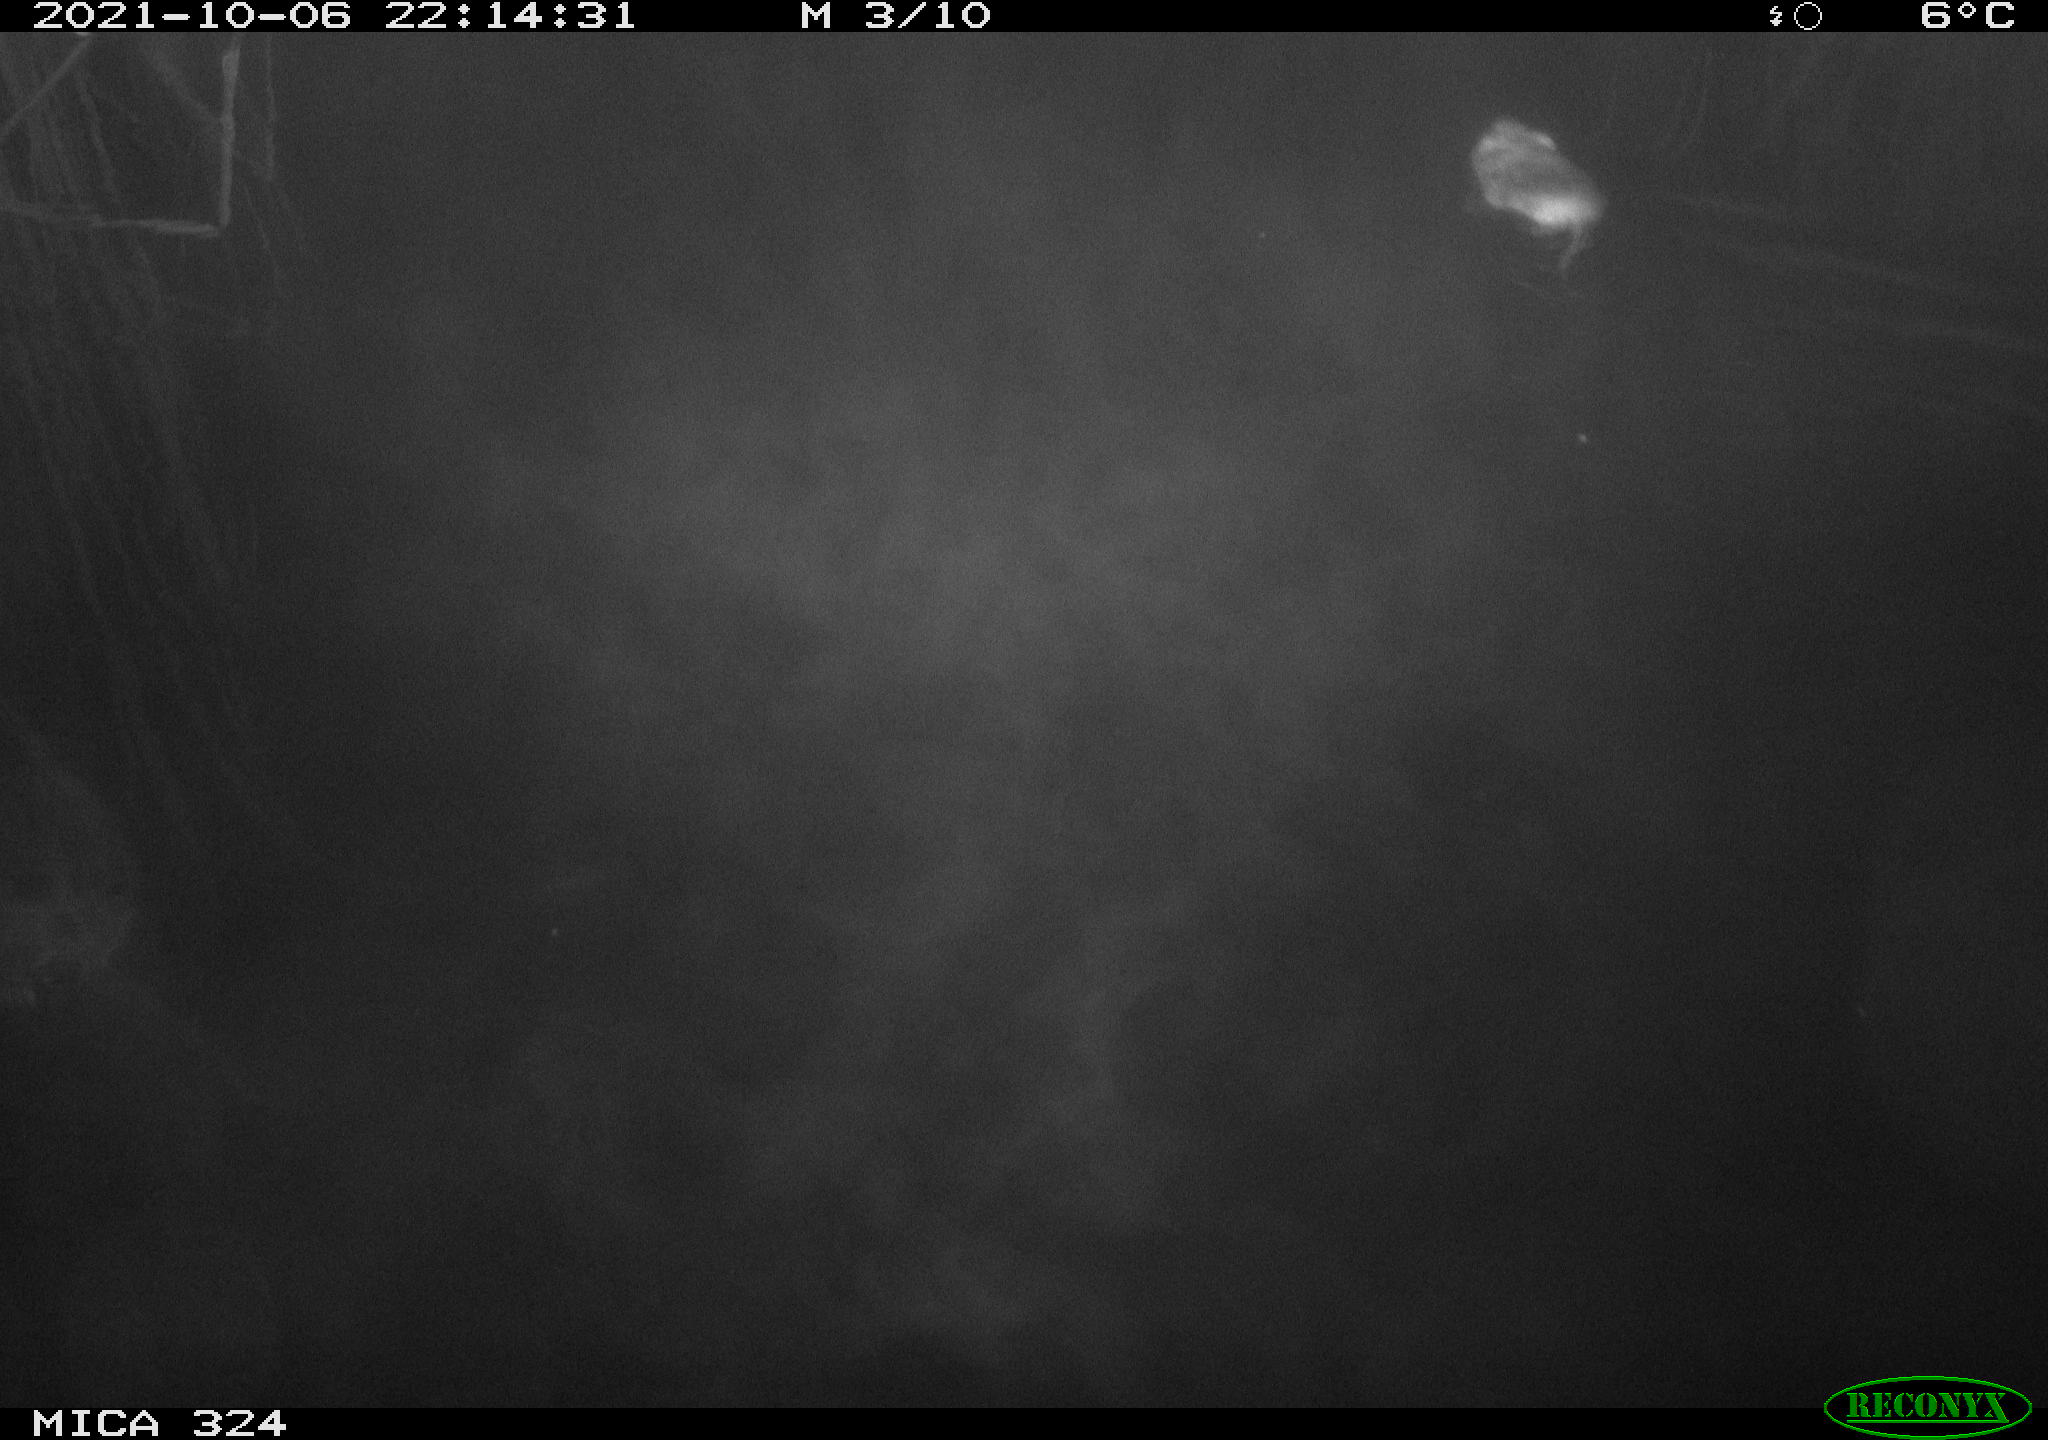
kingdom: Animalia
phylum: Chordata
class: Mammalia
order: Rodentia
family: Cricetidae
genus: Ondatra
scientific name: Ondatra zibethicus
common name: Muskrat
